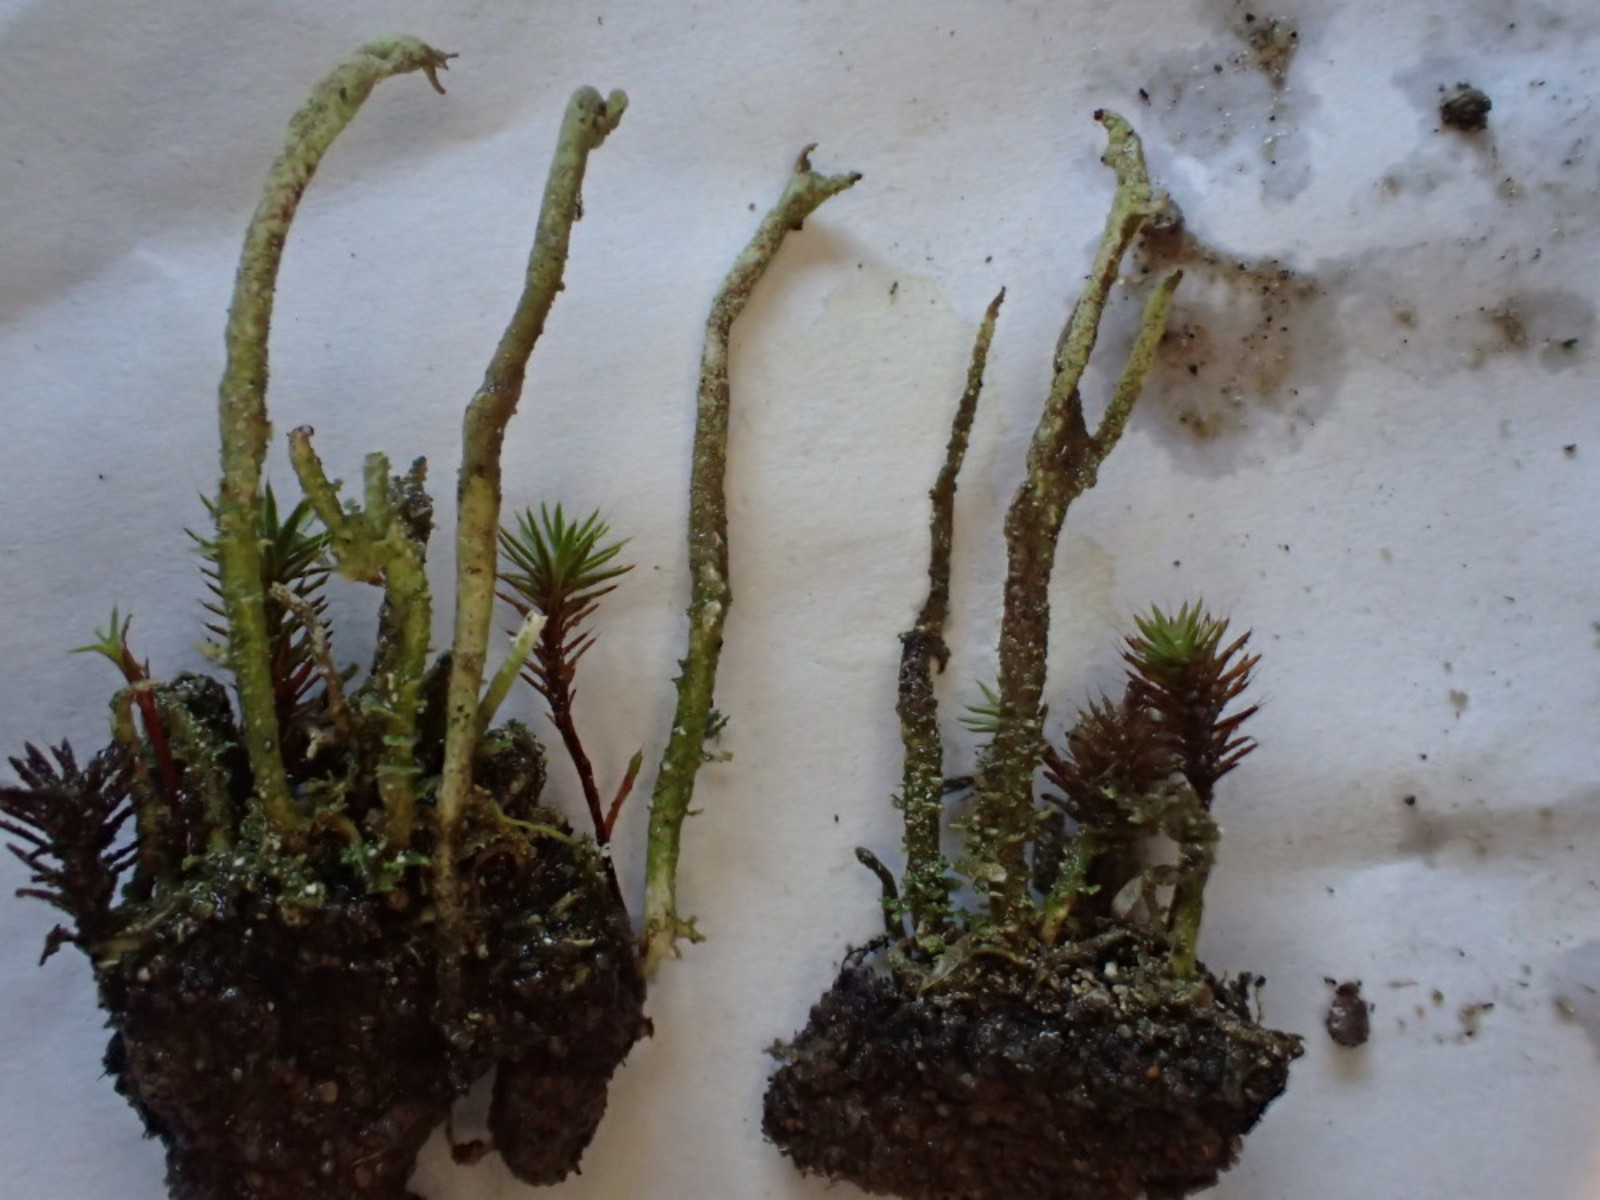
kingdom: Fungi
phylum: Ascomycota
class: Lecanoromycetes
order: Lecanorales
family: Cladoniaceae
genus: Cladonia
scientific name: Cladonia glauca
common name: grågrøn bægerlav
